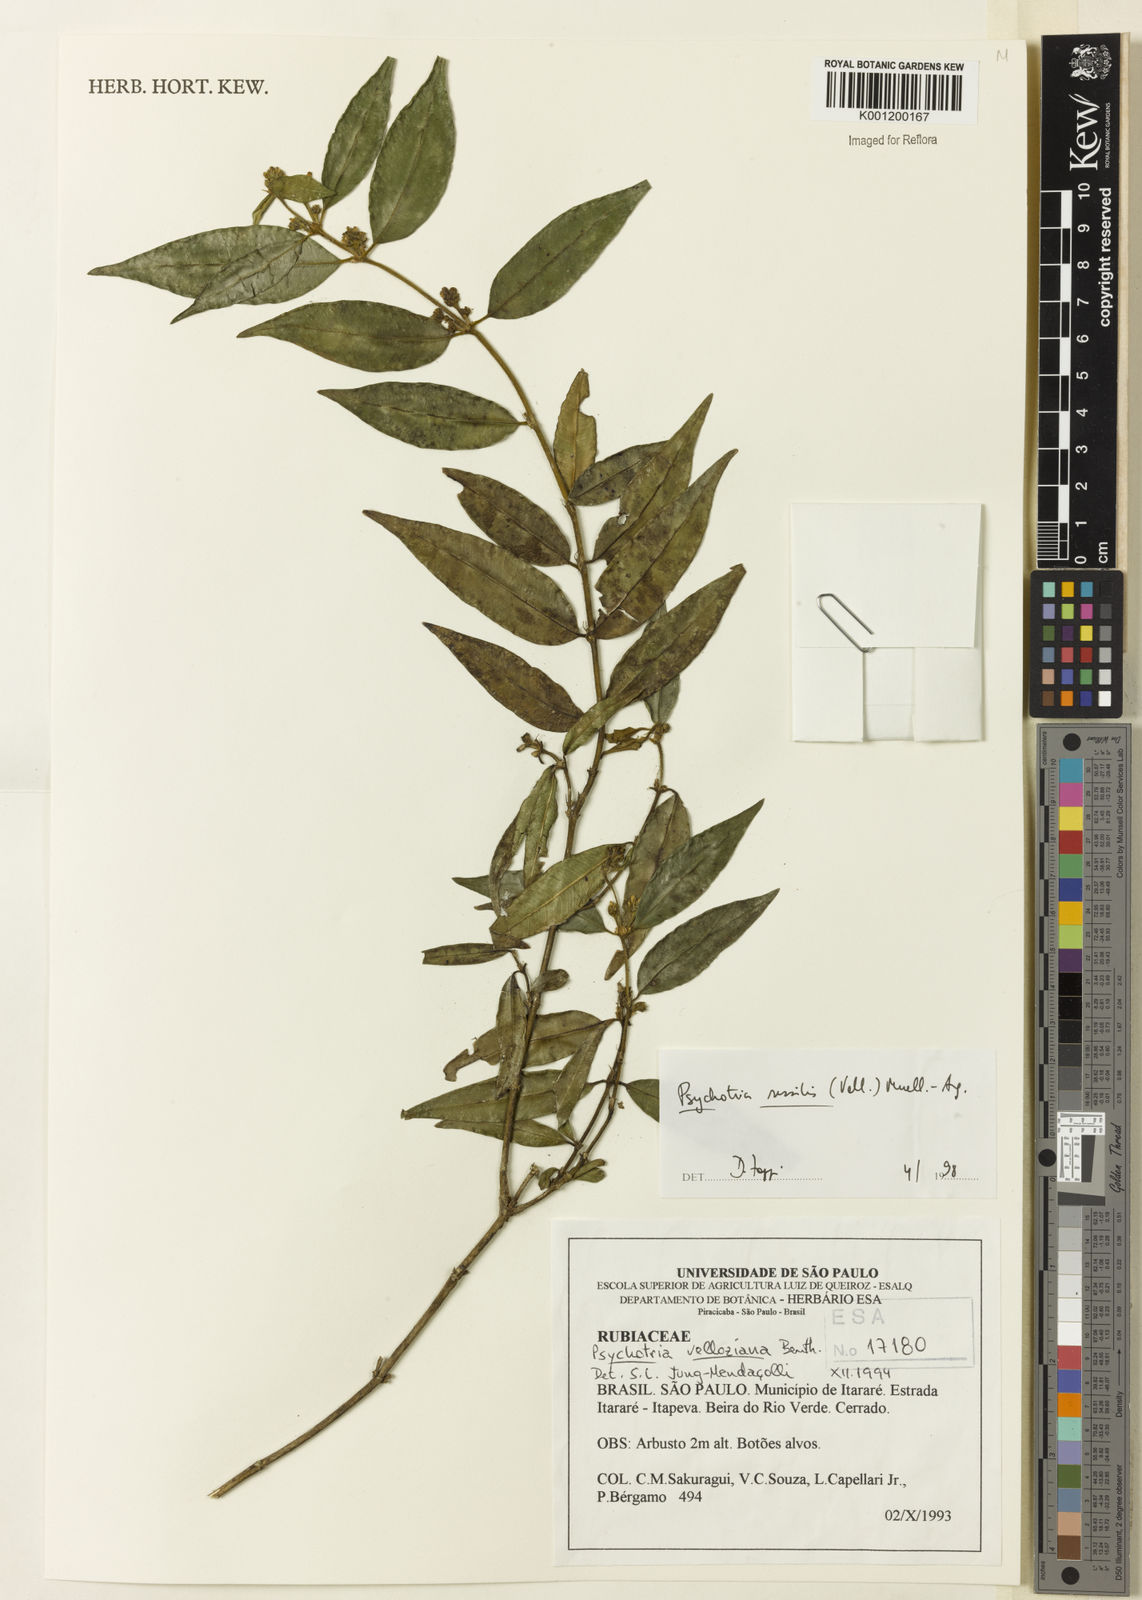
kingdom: Plantae
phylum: Tracheophyta
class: Magnoliopsida
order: Gentianales
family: Rubiaceae
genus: Rudgea
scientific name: Rudgea sessilis
